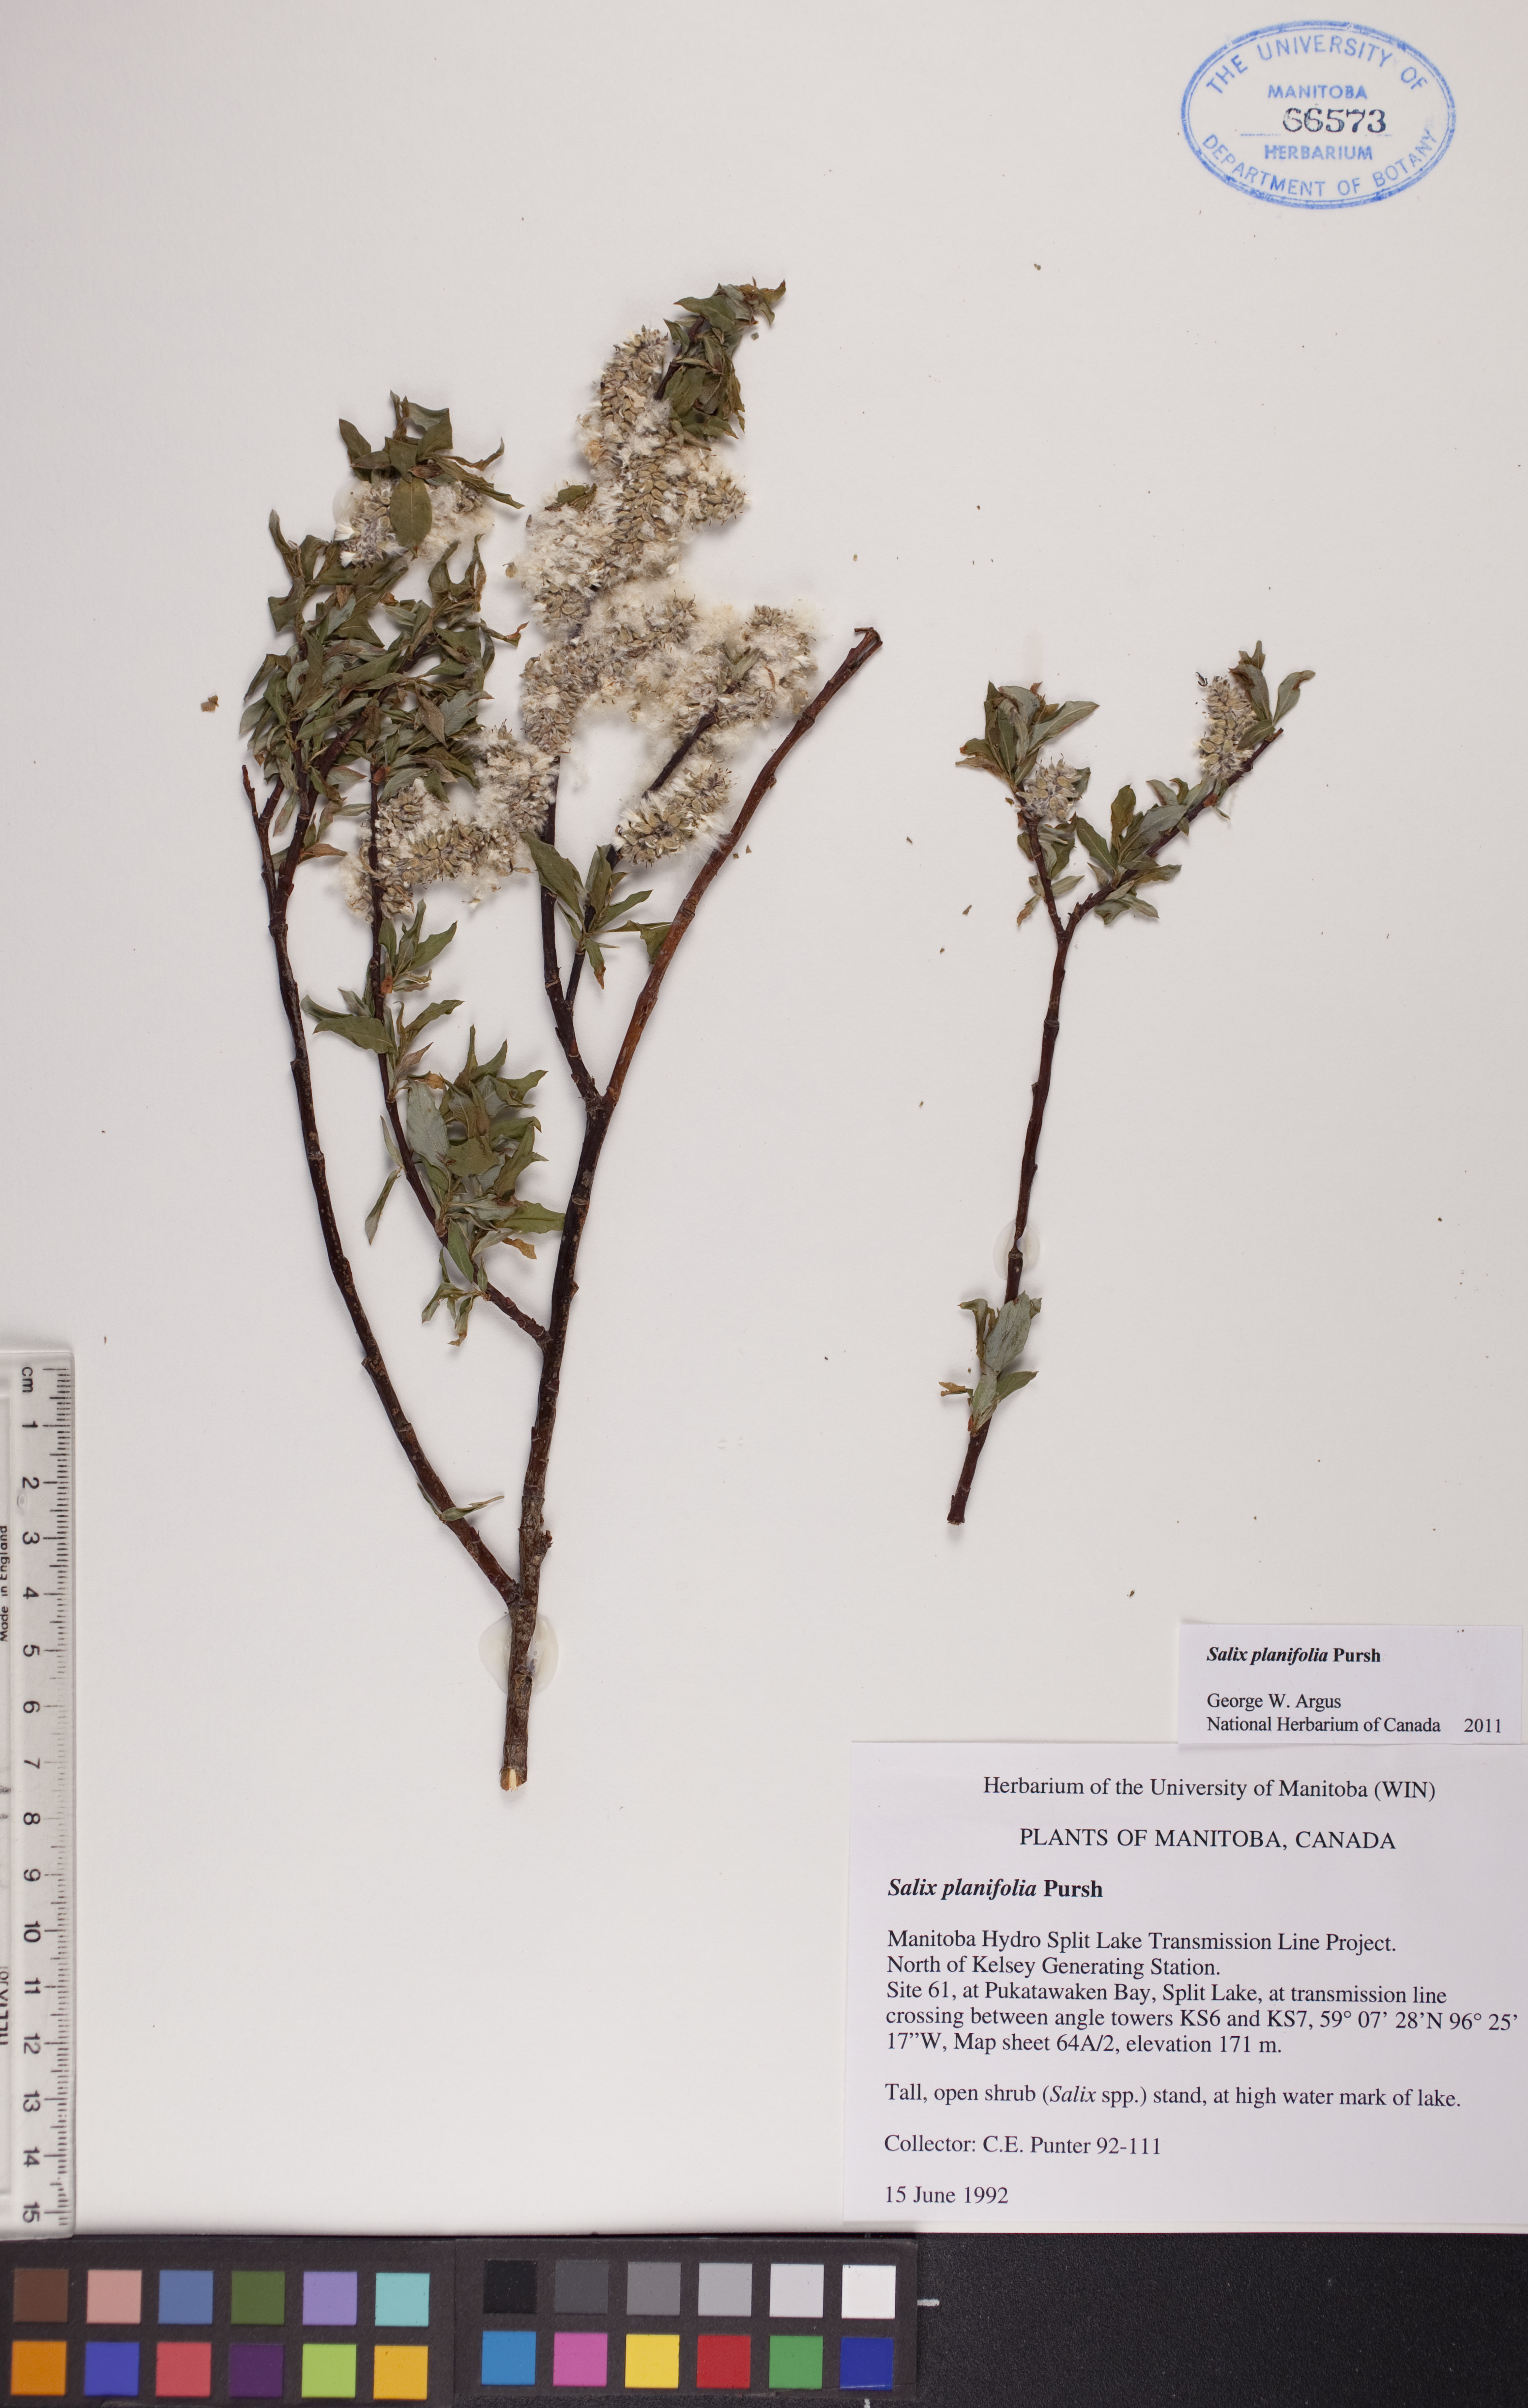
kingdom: Plantae
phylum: Tracheophyta
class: Magnoliopsida
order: Malpighiales
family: Salicaceae
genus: Salix
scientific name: Salix planifolia
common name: Mountain willow
